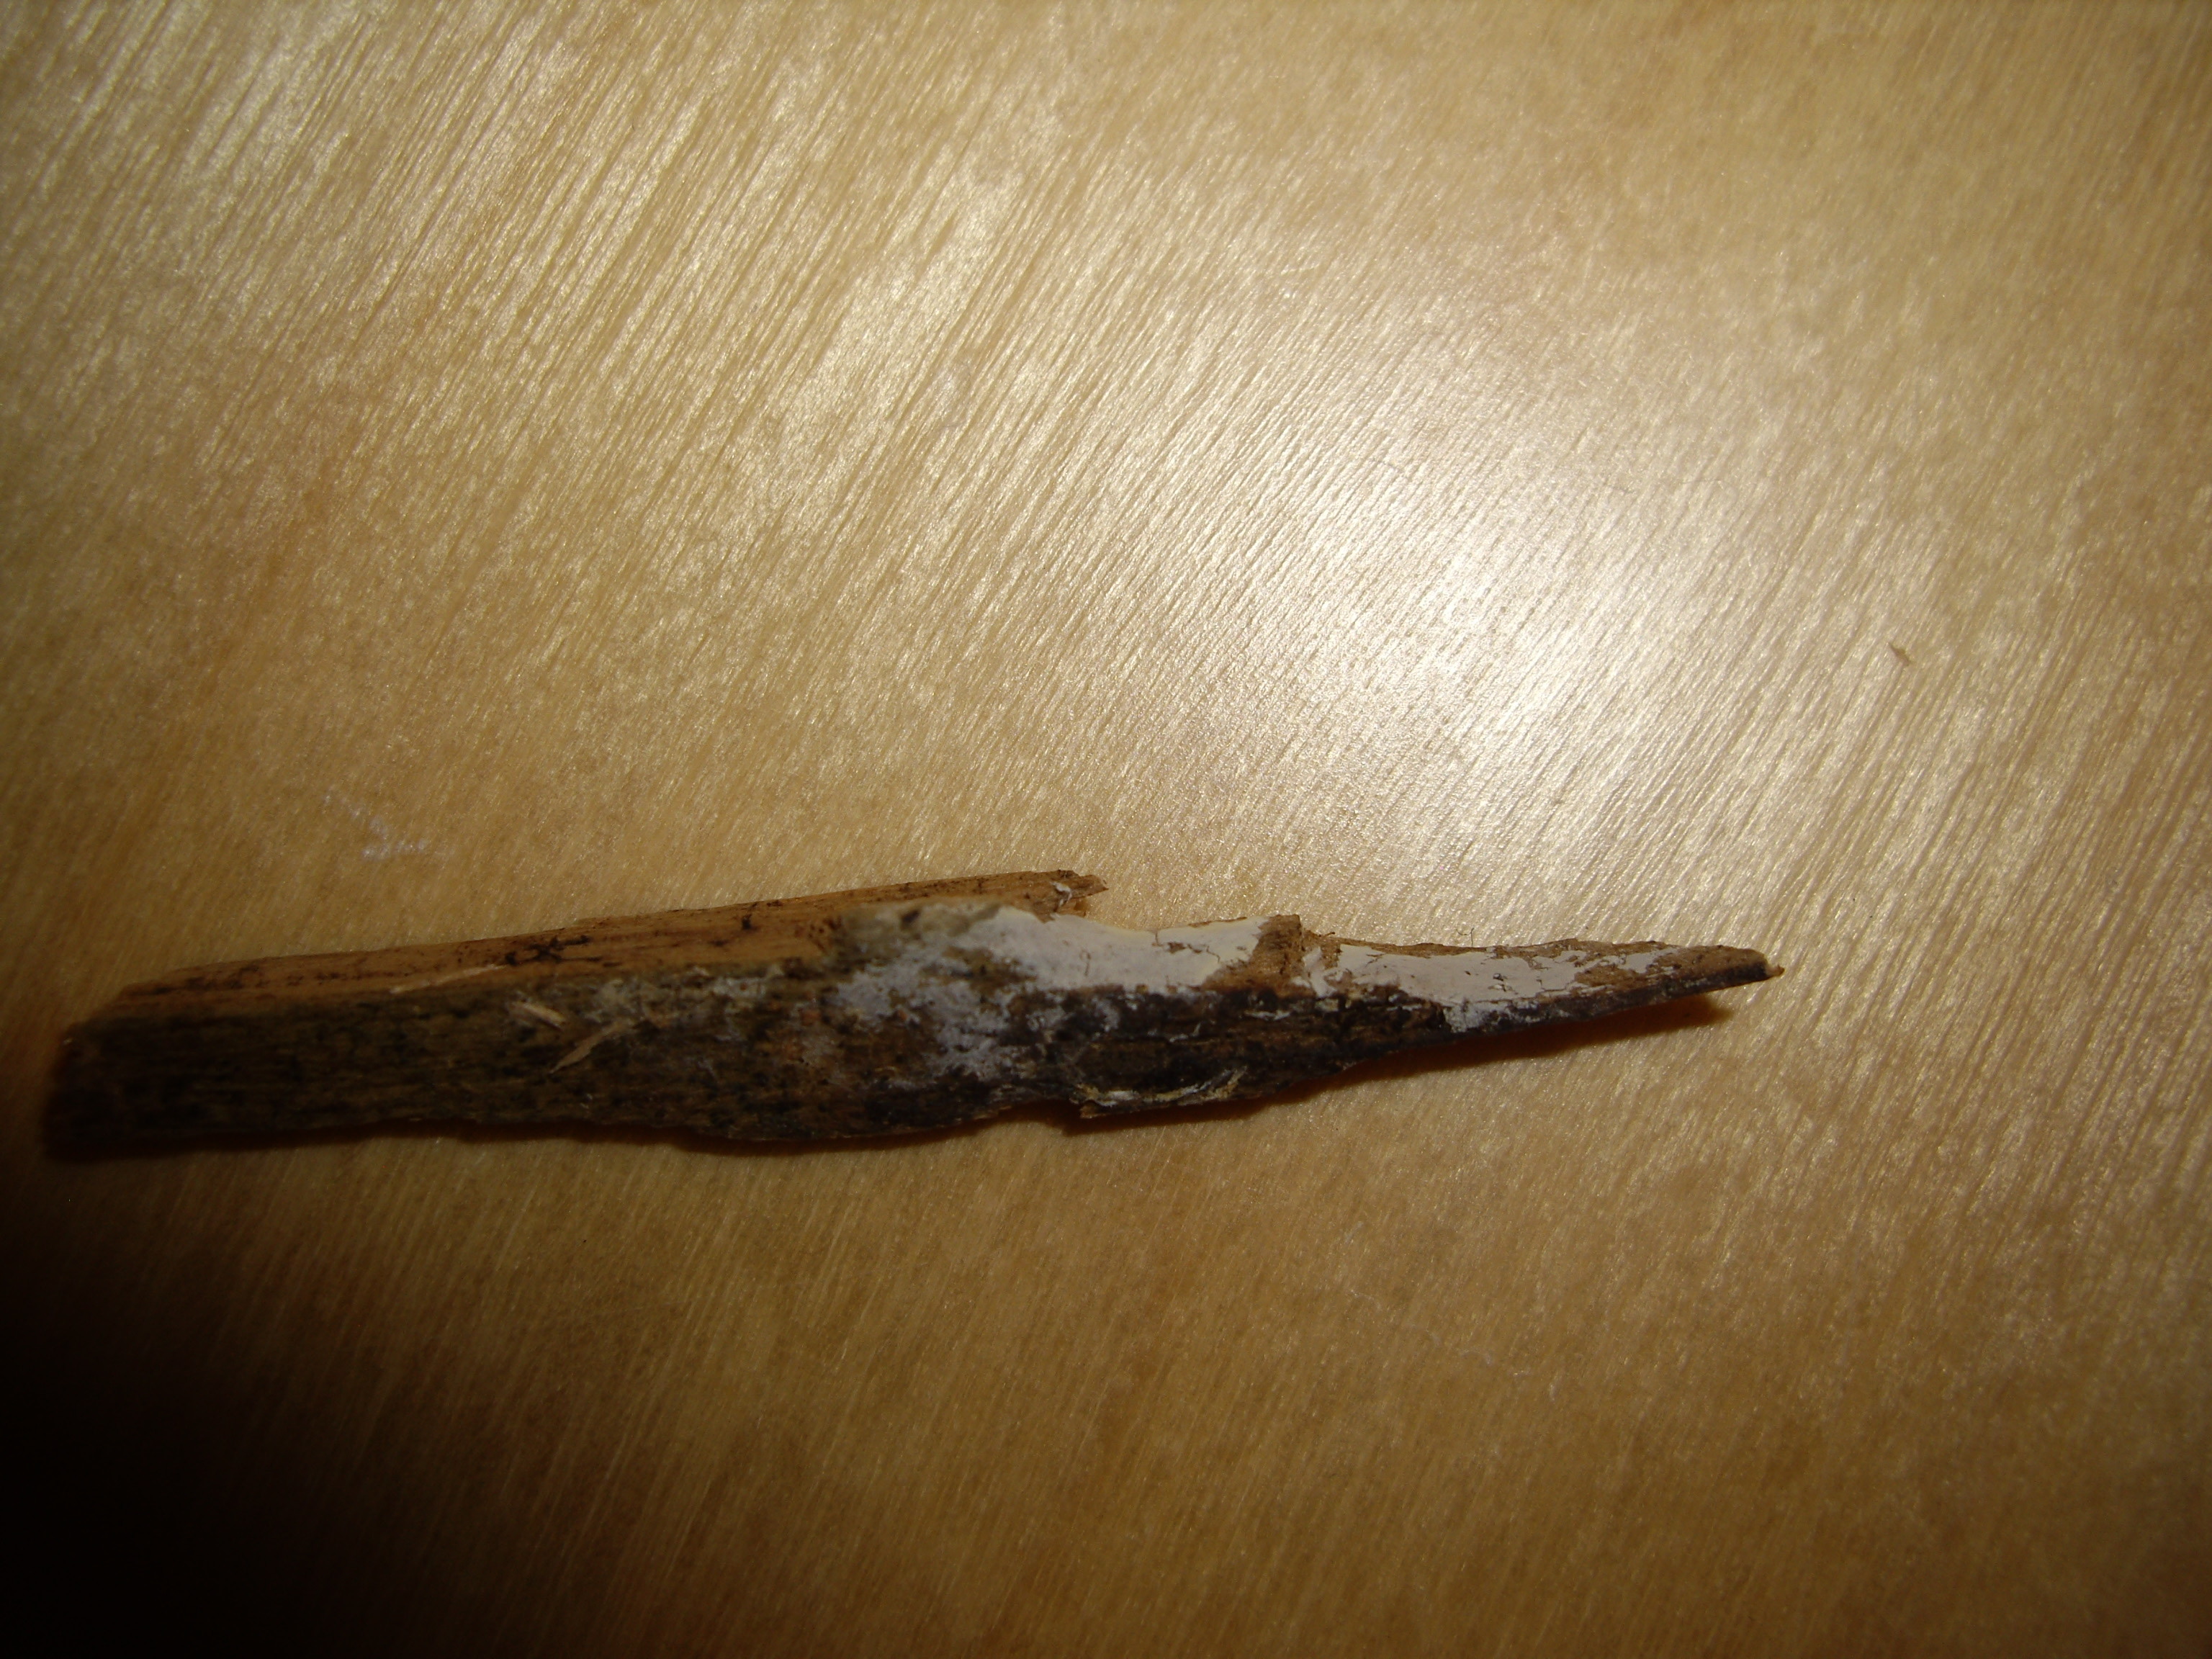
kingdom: Fungi
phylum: Basidiomycota
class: Agaricomycetes
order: Atheliales
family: Atheliaceae
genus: Leptosporomyces
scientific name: Leptosporomyces septentrionalis
